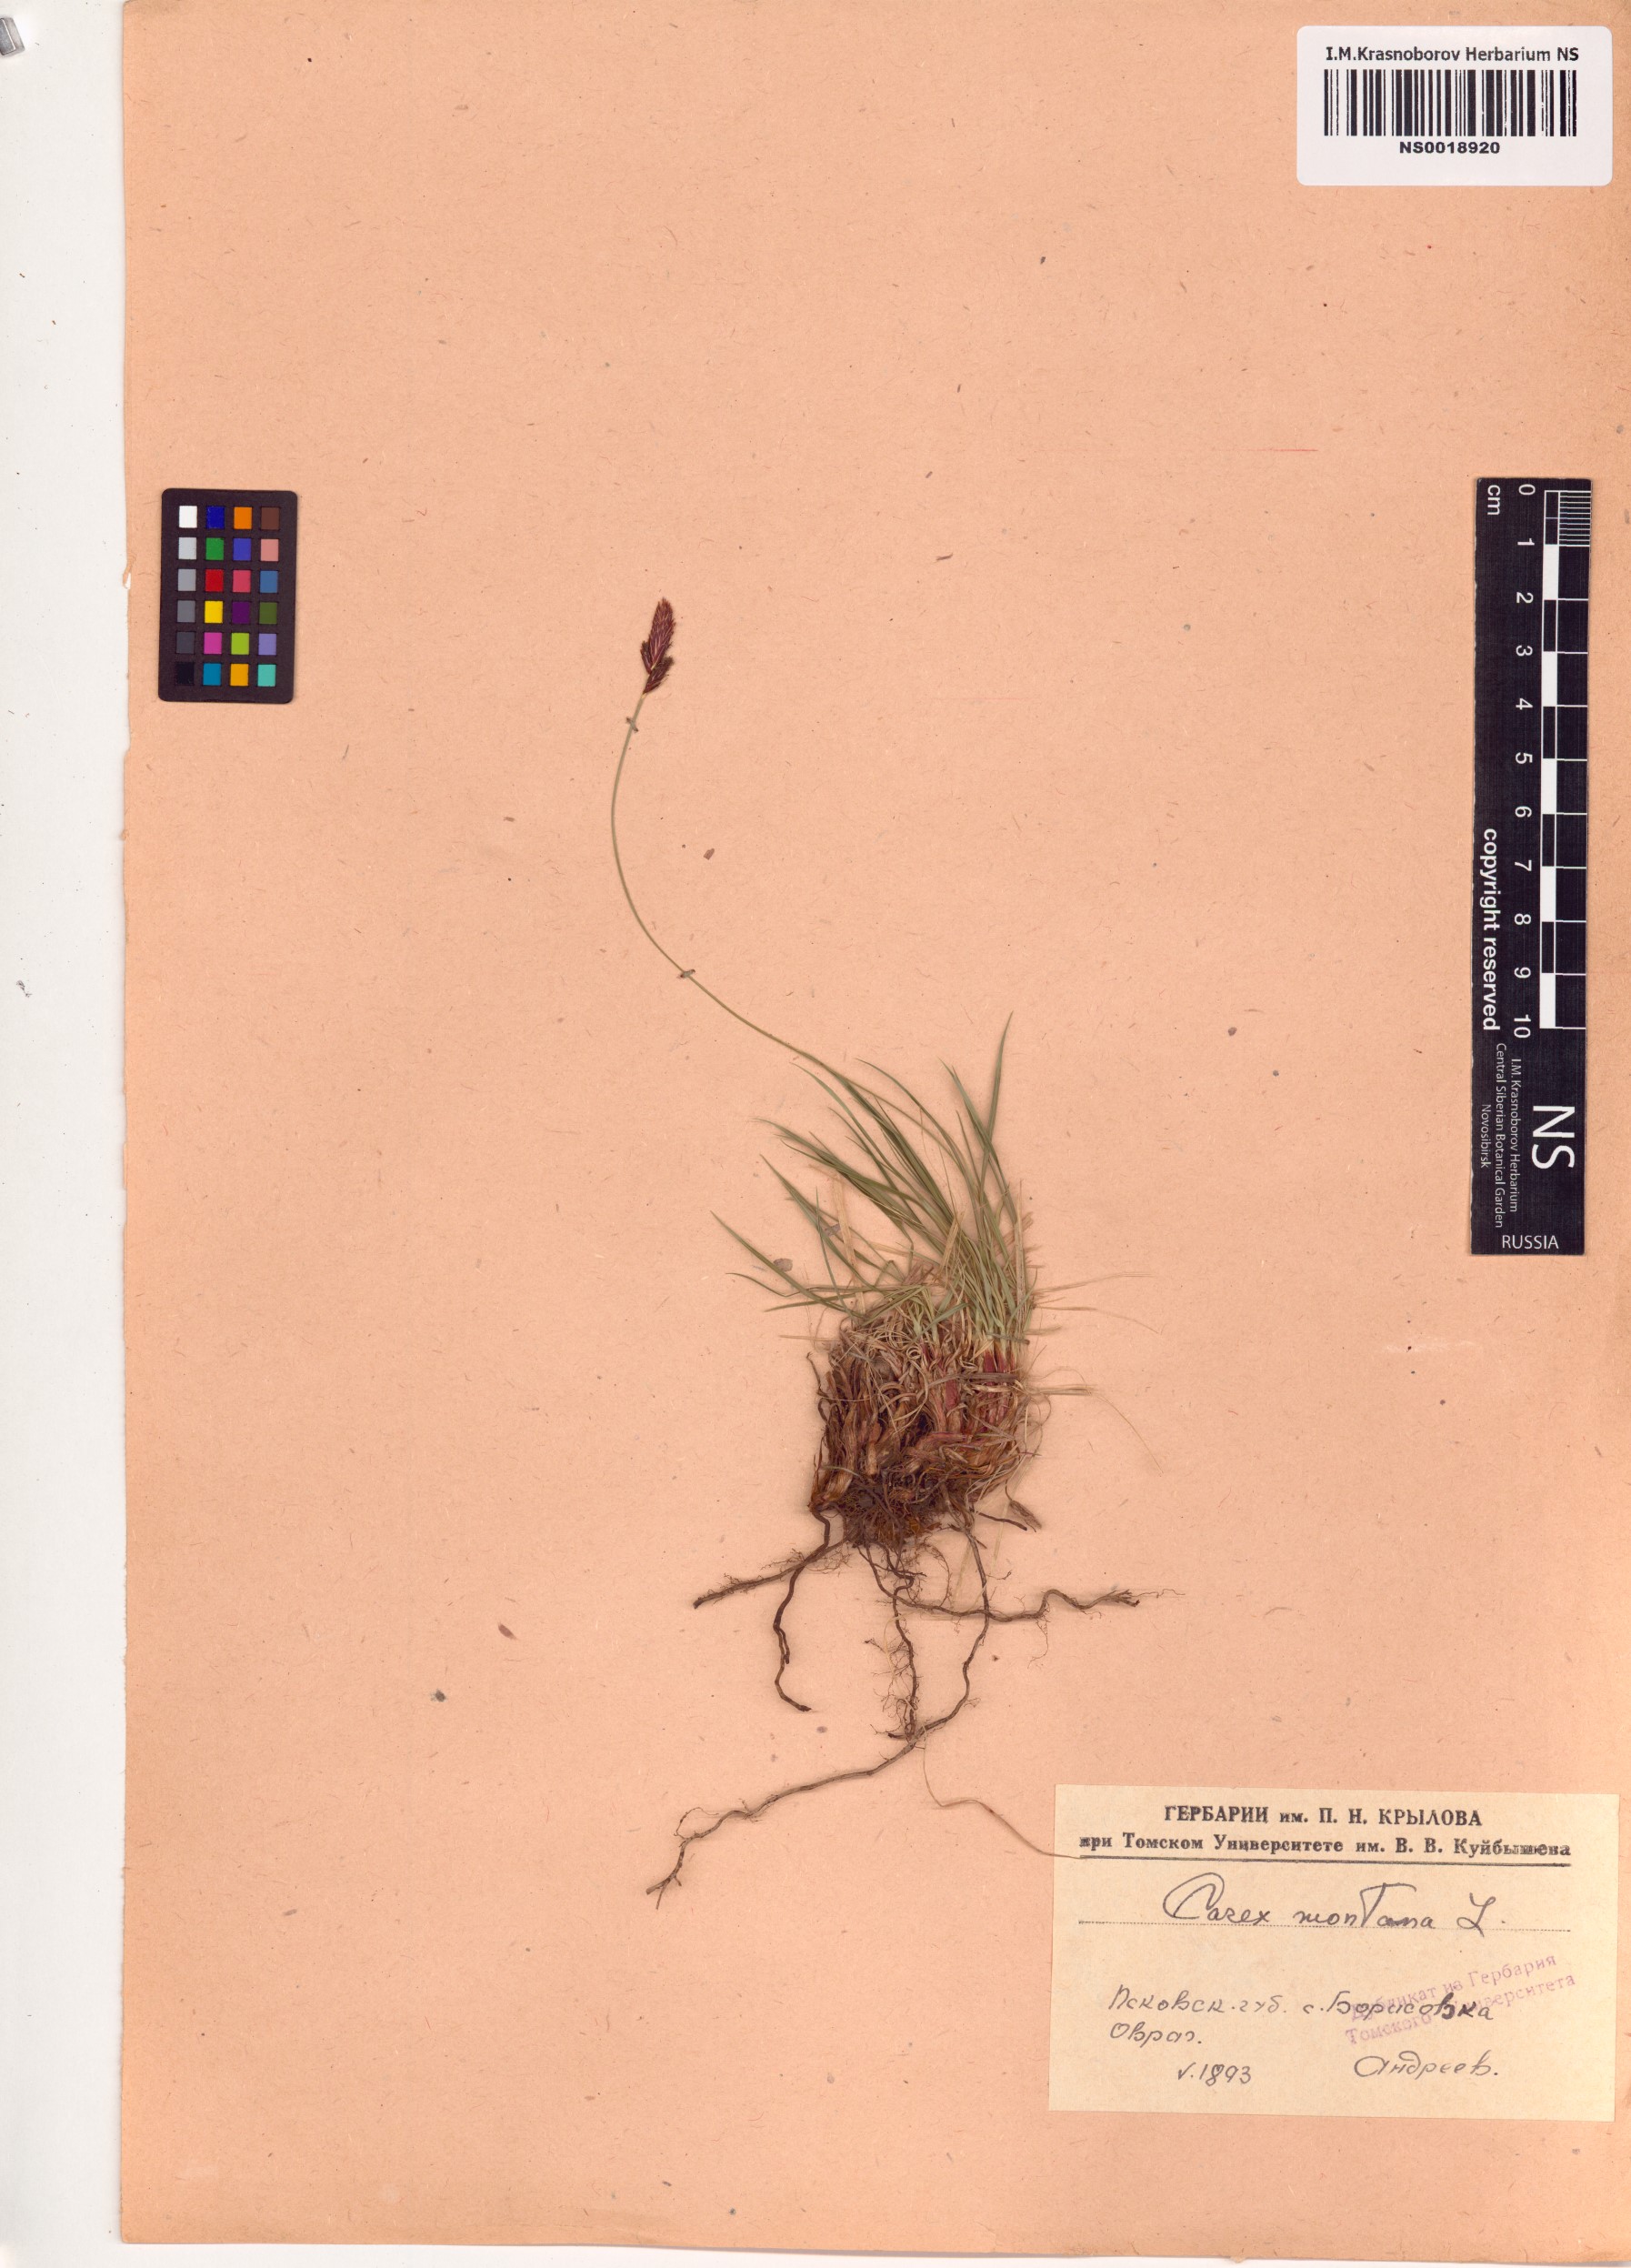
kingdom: Plantae
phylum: Tracheophyta
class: Liliopsida
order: Poales
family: Cyperaceae
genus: Carex
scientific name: Carex montana
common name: Soft-leaved sedge
